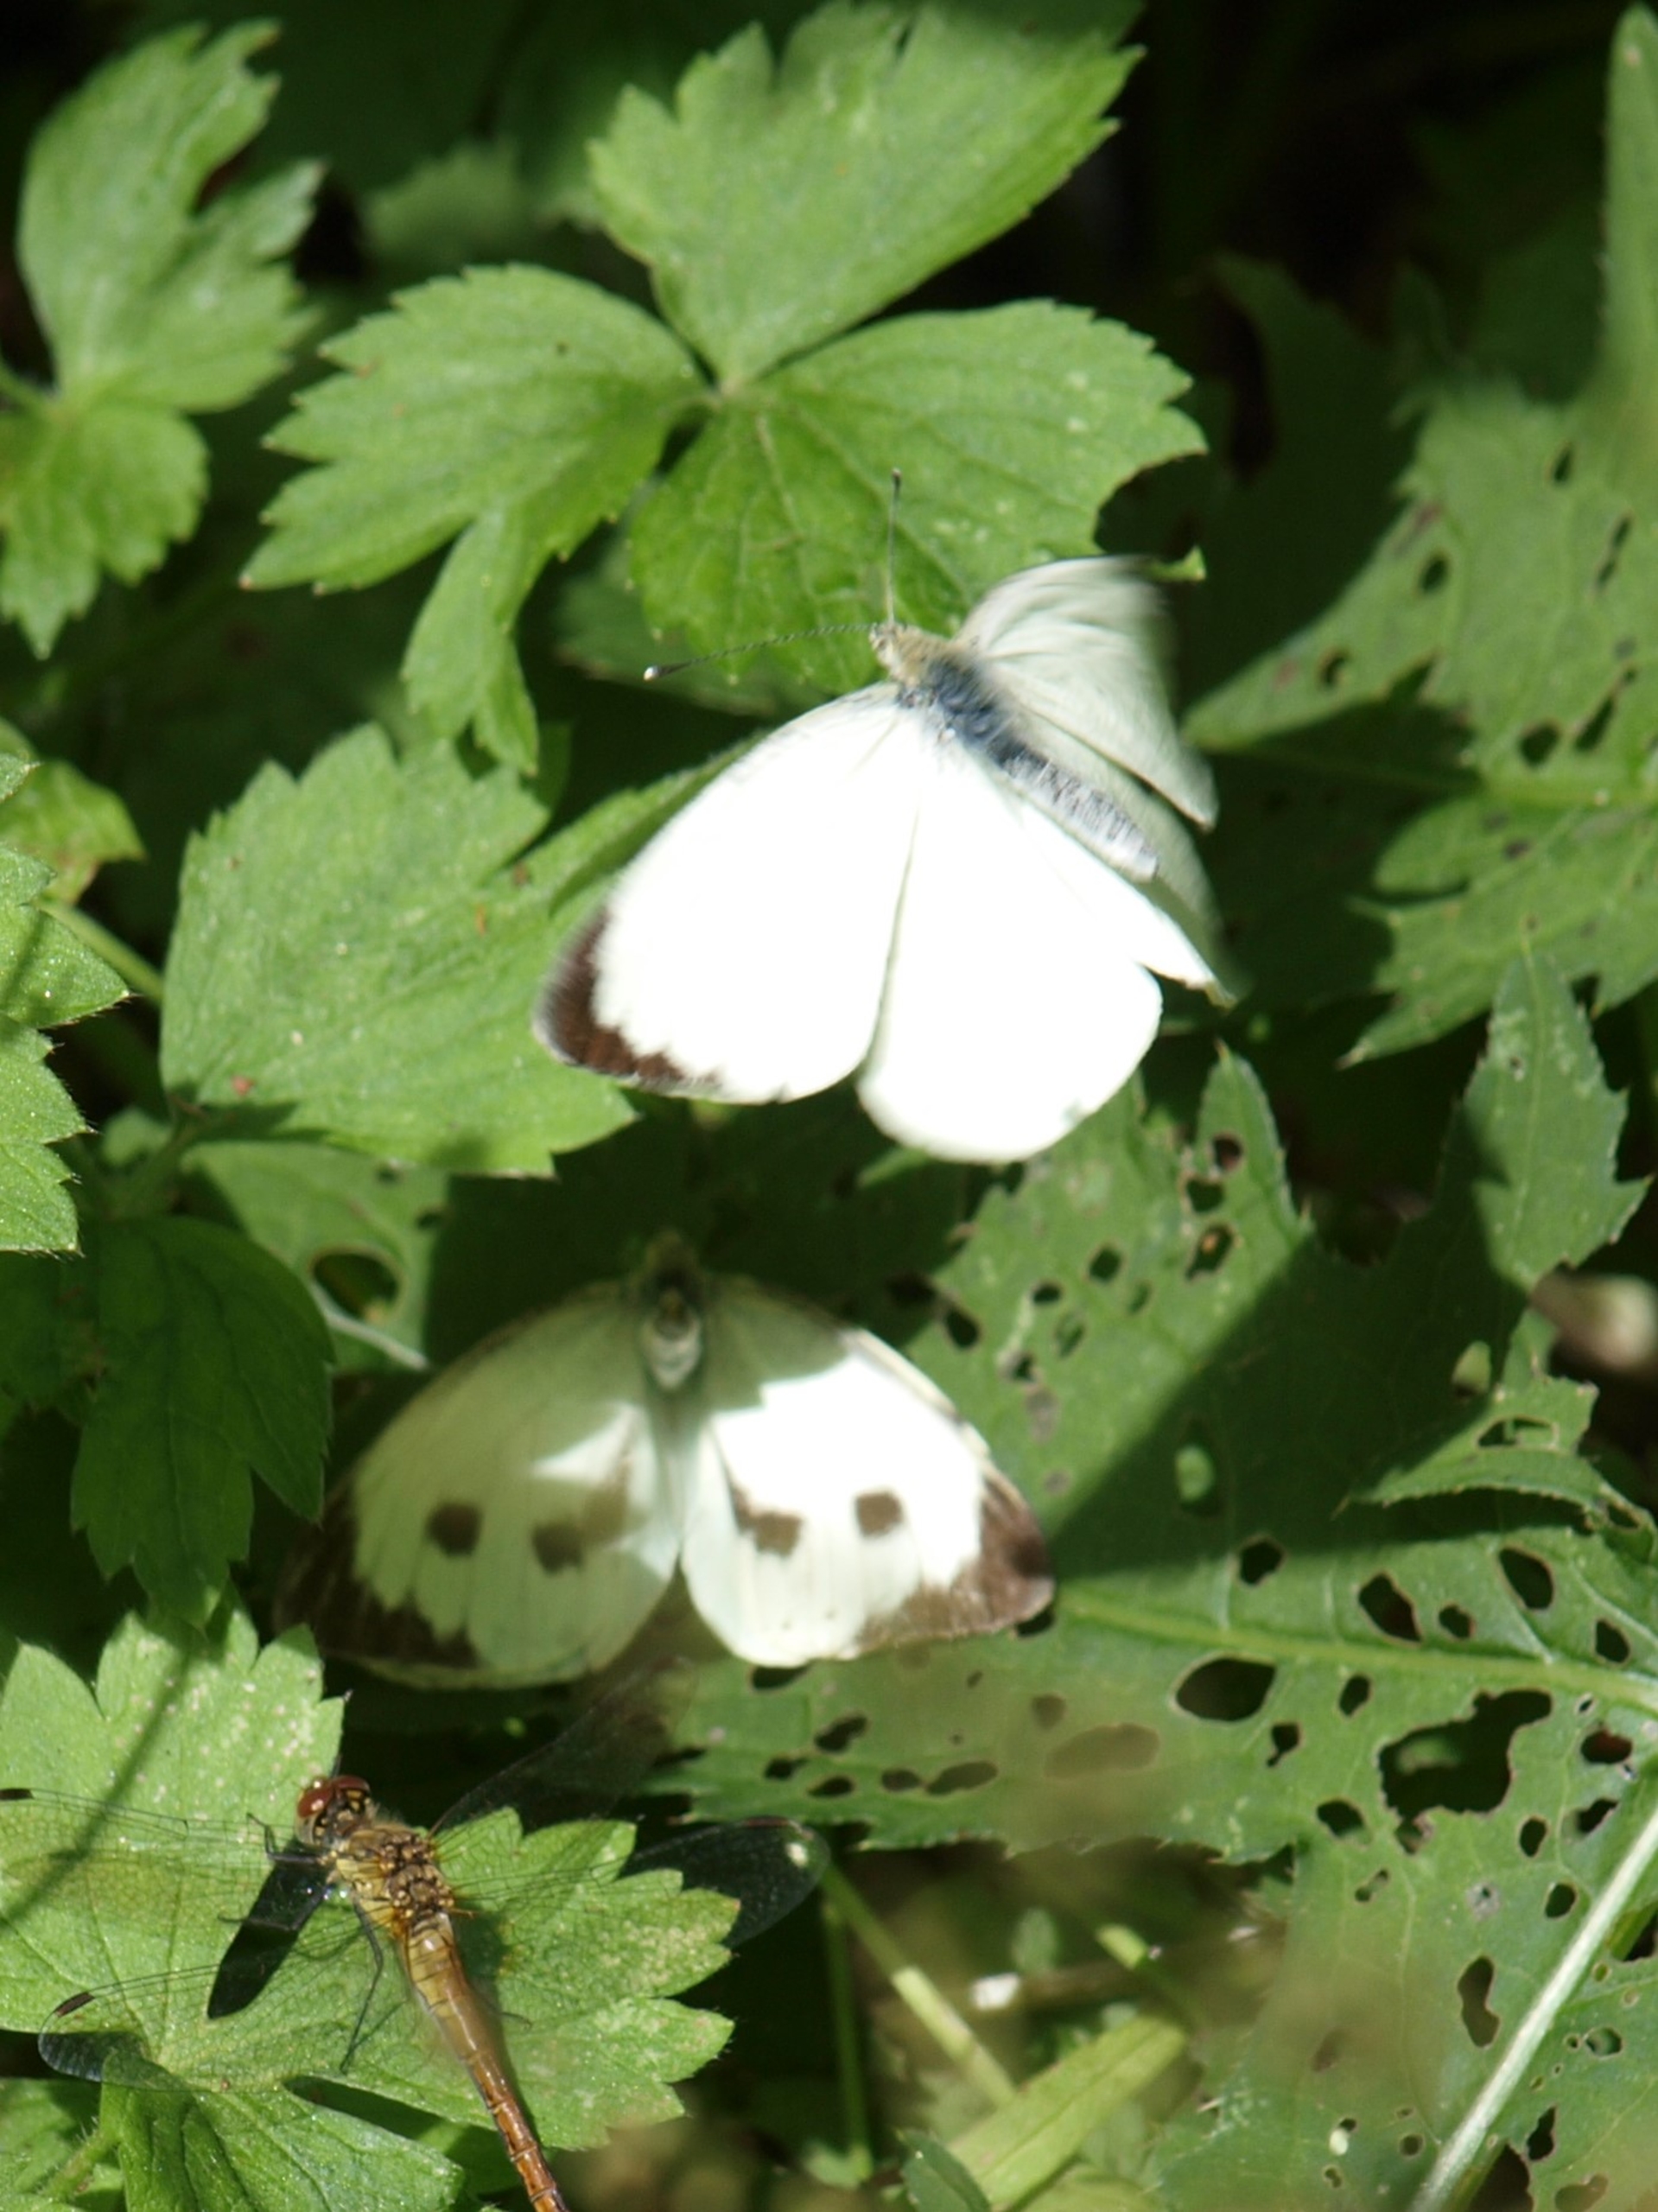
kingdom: Animalia
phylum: Arthropoda
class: Insecta
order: Lepidoptera
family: Pieridae
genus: Pieris
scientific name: Pieris brassicae
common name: Stor kålsommerfugl
